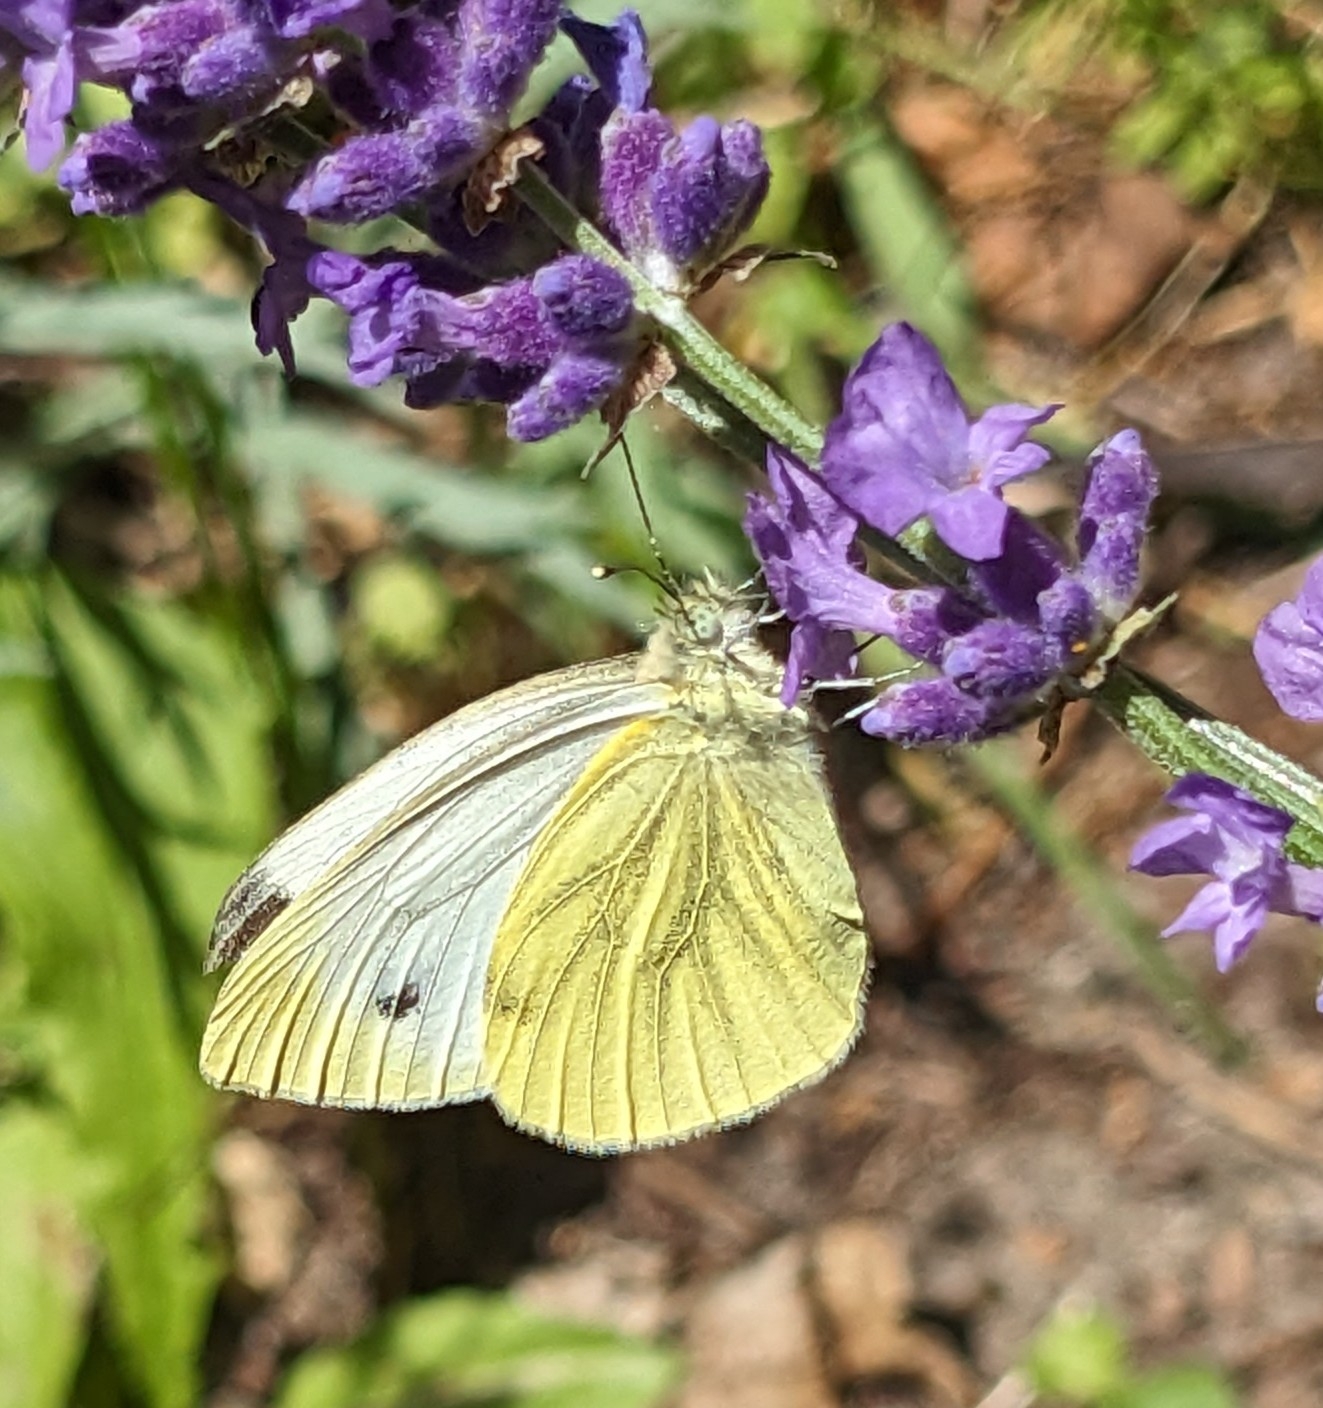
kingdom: Animalia
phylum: Arthropoda
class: Insecta
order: Lepidoptera
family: Pieridae
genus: Pieris
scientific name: Pieris napi
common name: Grønåret kålsommerfugl
